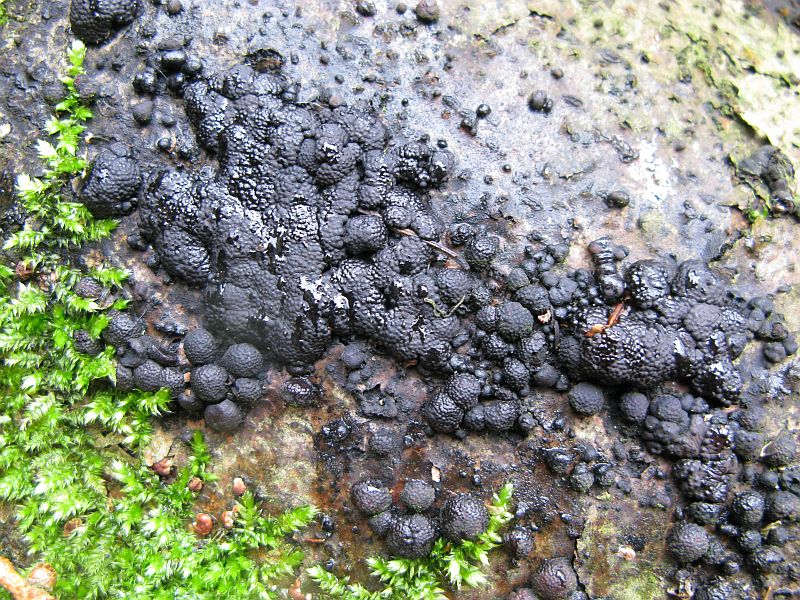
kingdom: Fungi
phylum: Ascomycota
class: Sordariomycetes
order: Xylariales
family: Hypoxylaceae
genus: Jackrogersella
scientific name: Jackrogersella cohaerens
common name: sammenflydende kulbær
